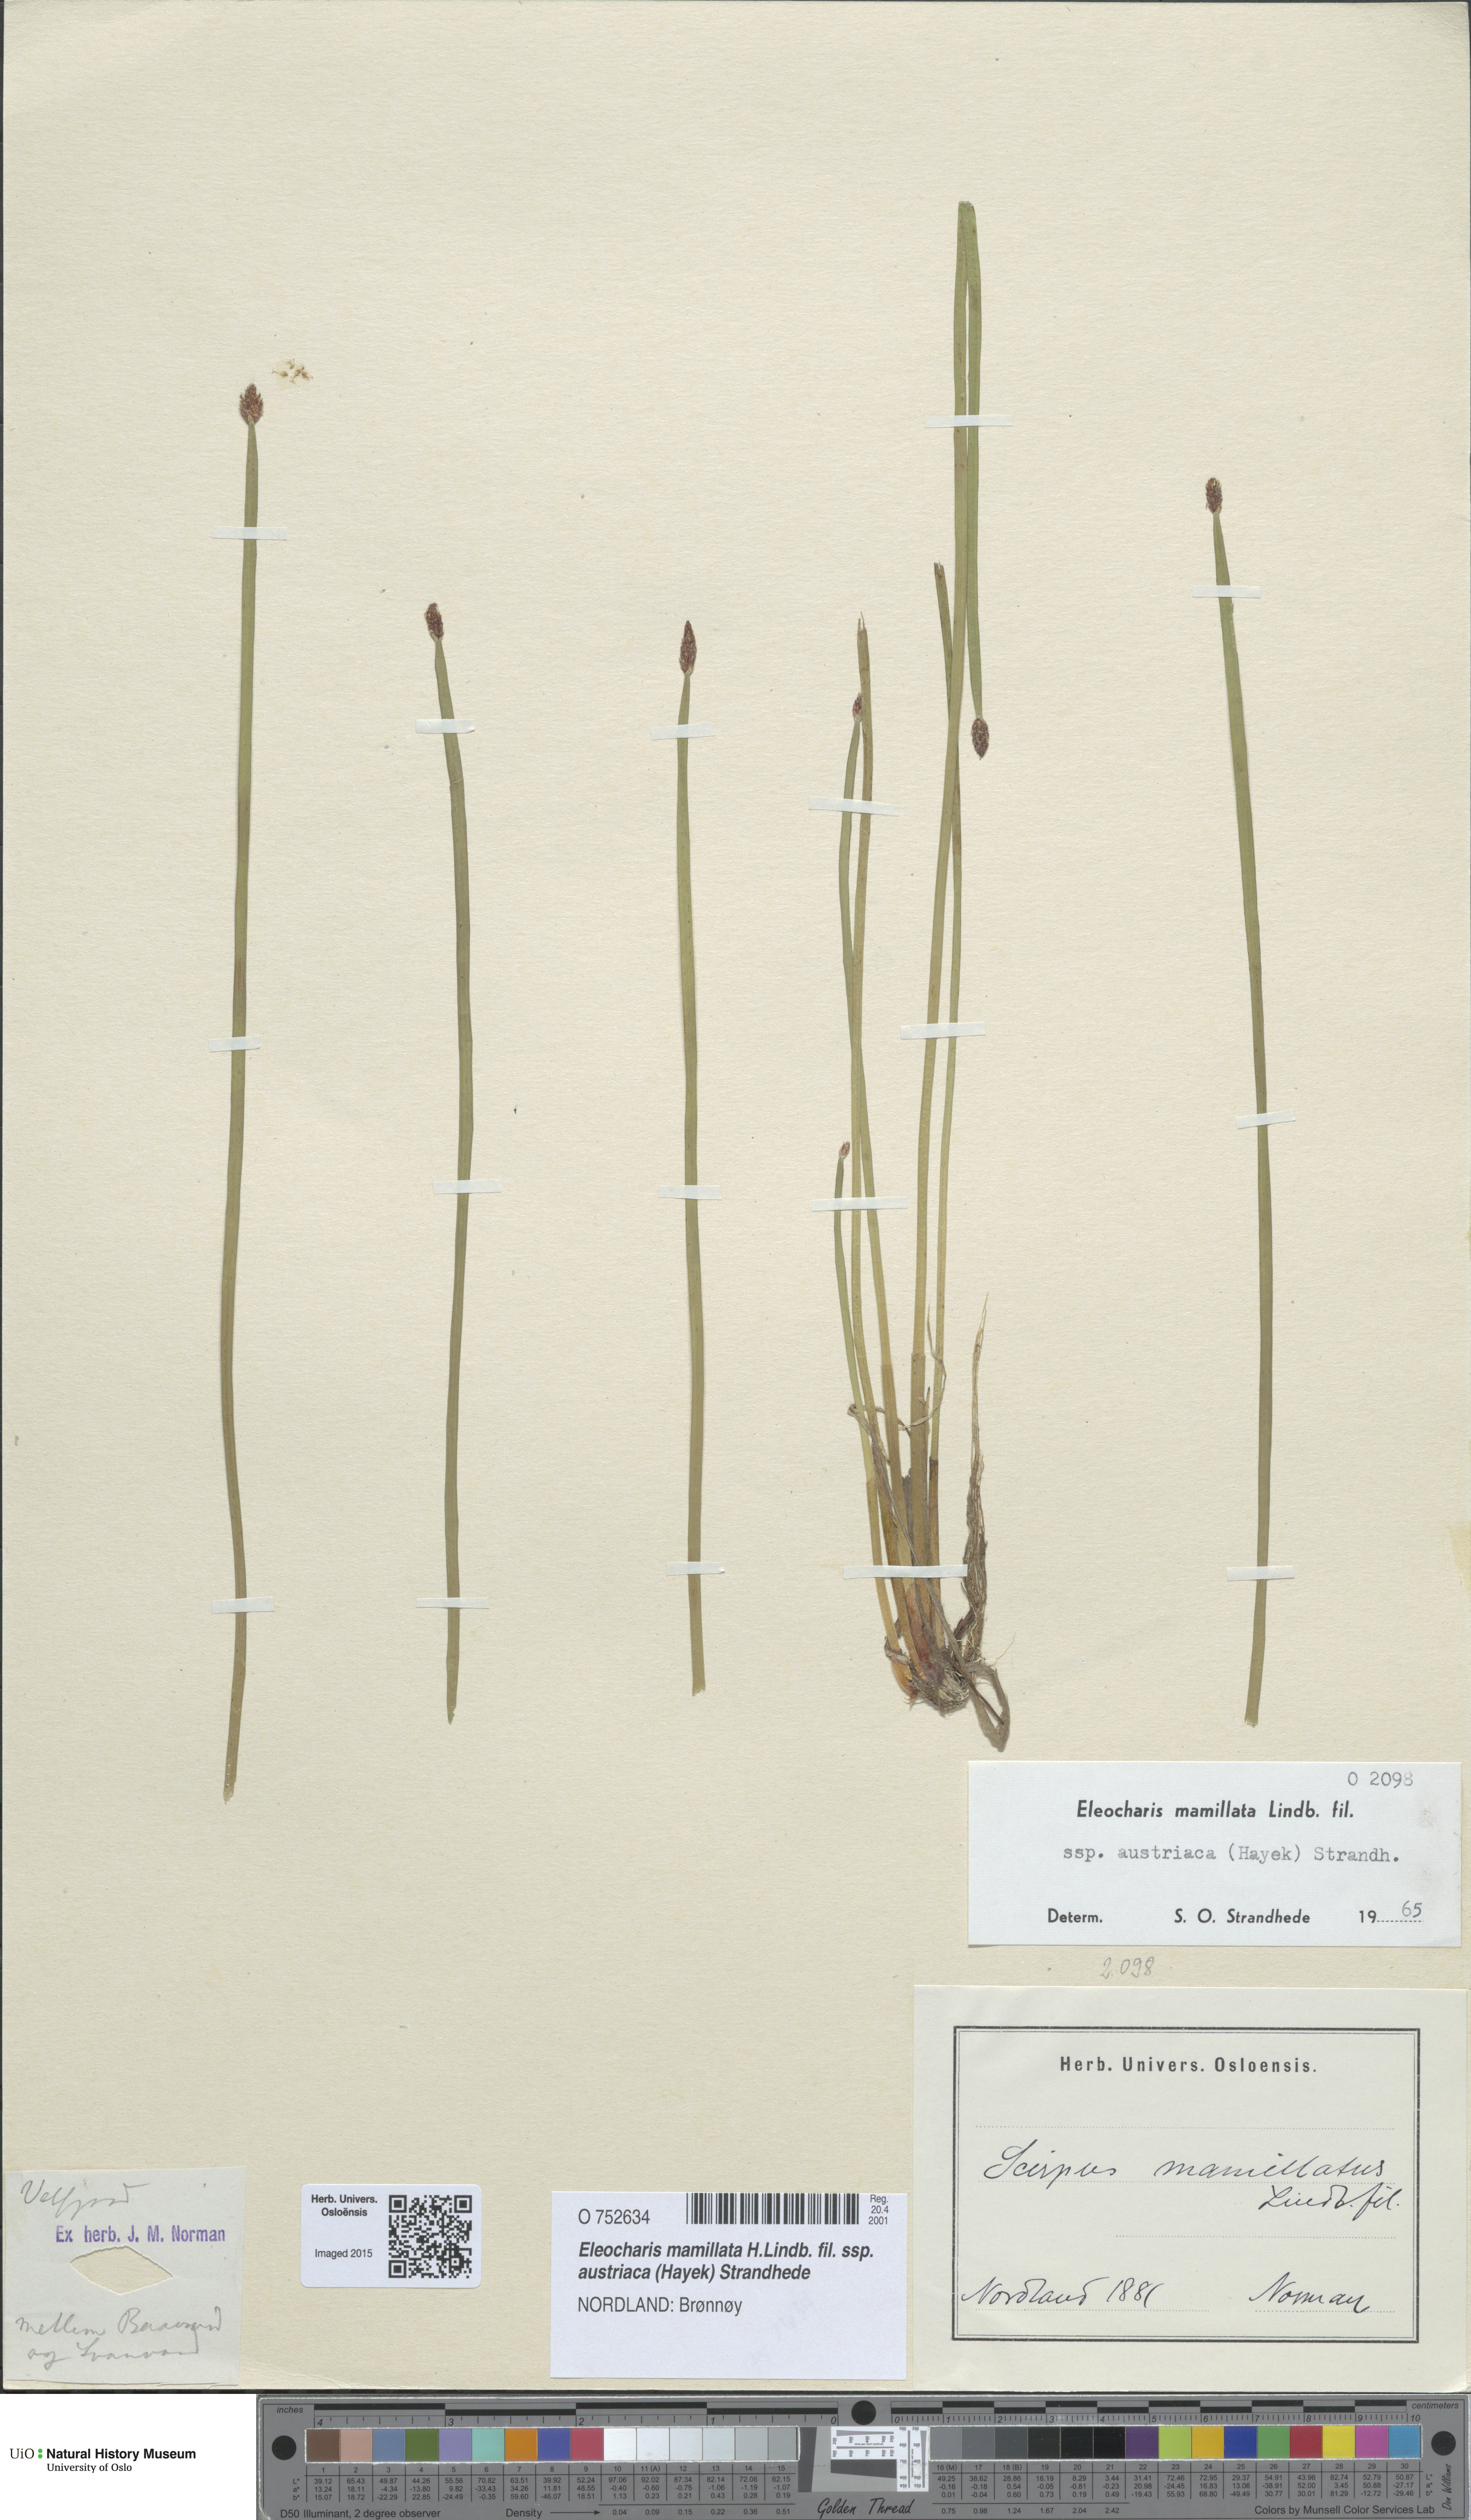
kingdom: Plantae
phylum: Tracheophyta
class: Liliopsida
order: Poales
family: Cyperaceae
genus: Eleocharis
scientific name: Eleocharis mamillata
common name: Northern spike-rush
